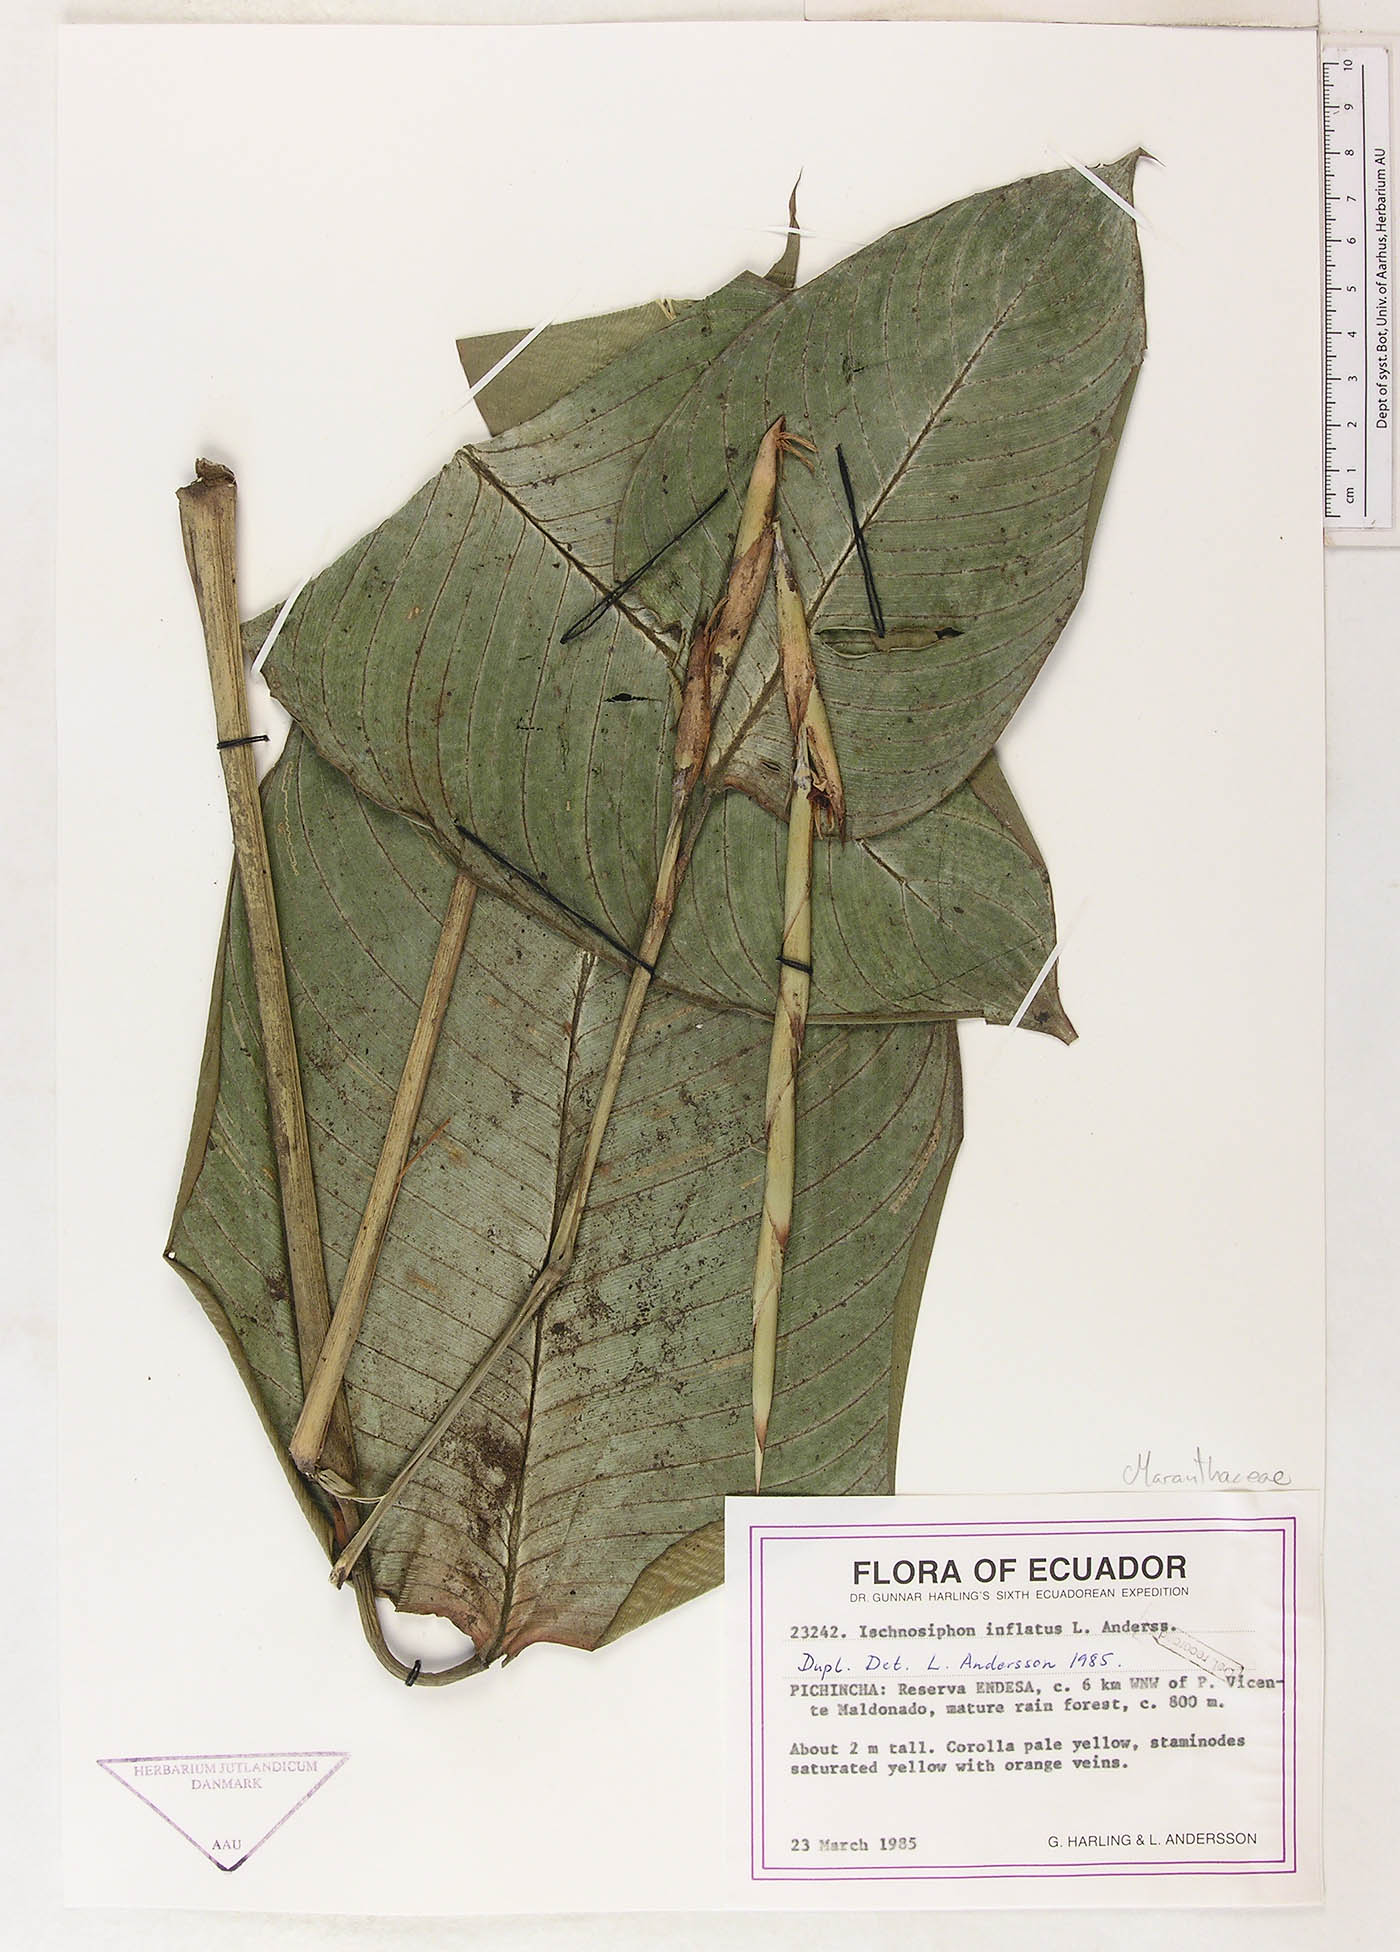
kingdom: Plantae
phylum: Tracheophyta
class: Liliopsida
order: Zingiberales
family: Marantaceae
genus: Ischnosiphon
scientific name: Ischnosiphon inflatus
